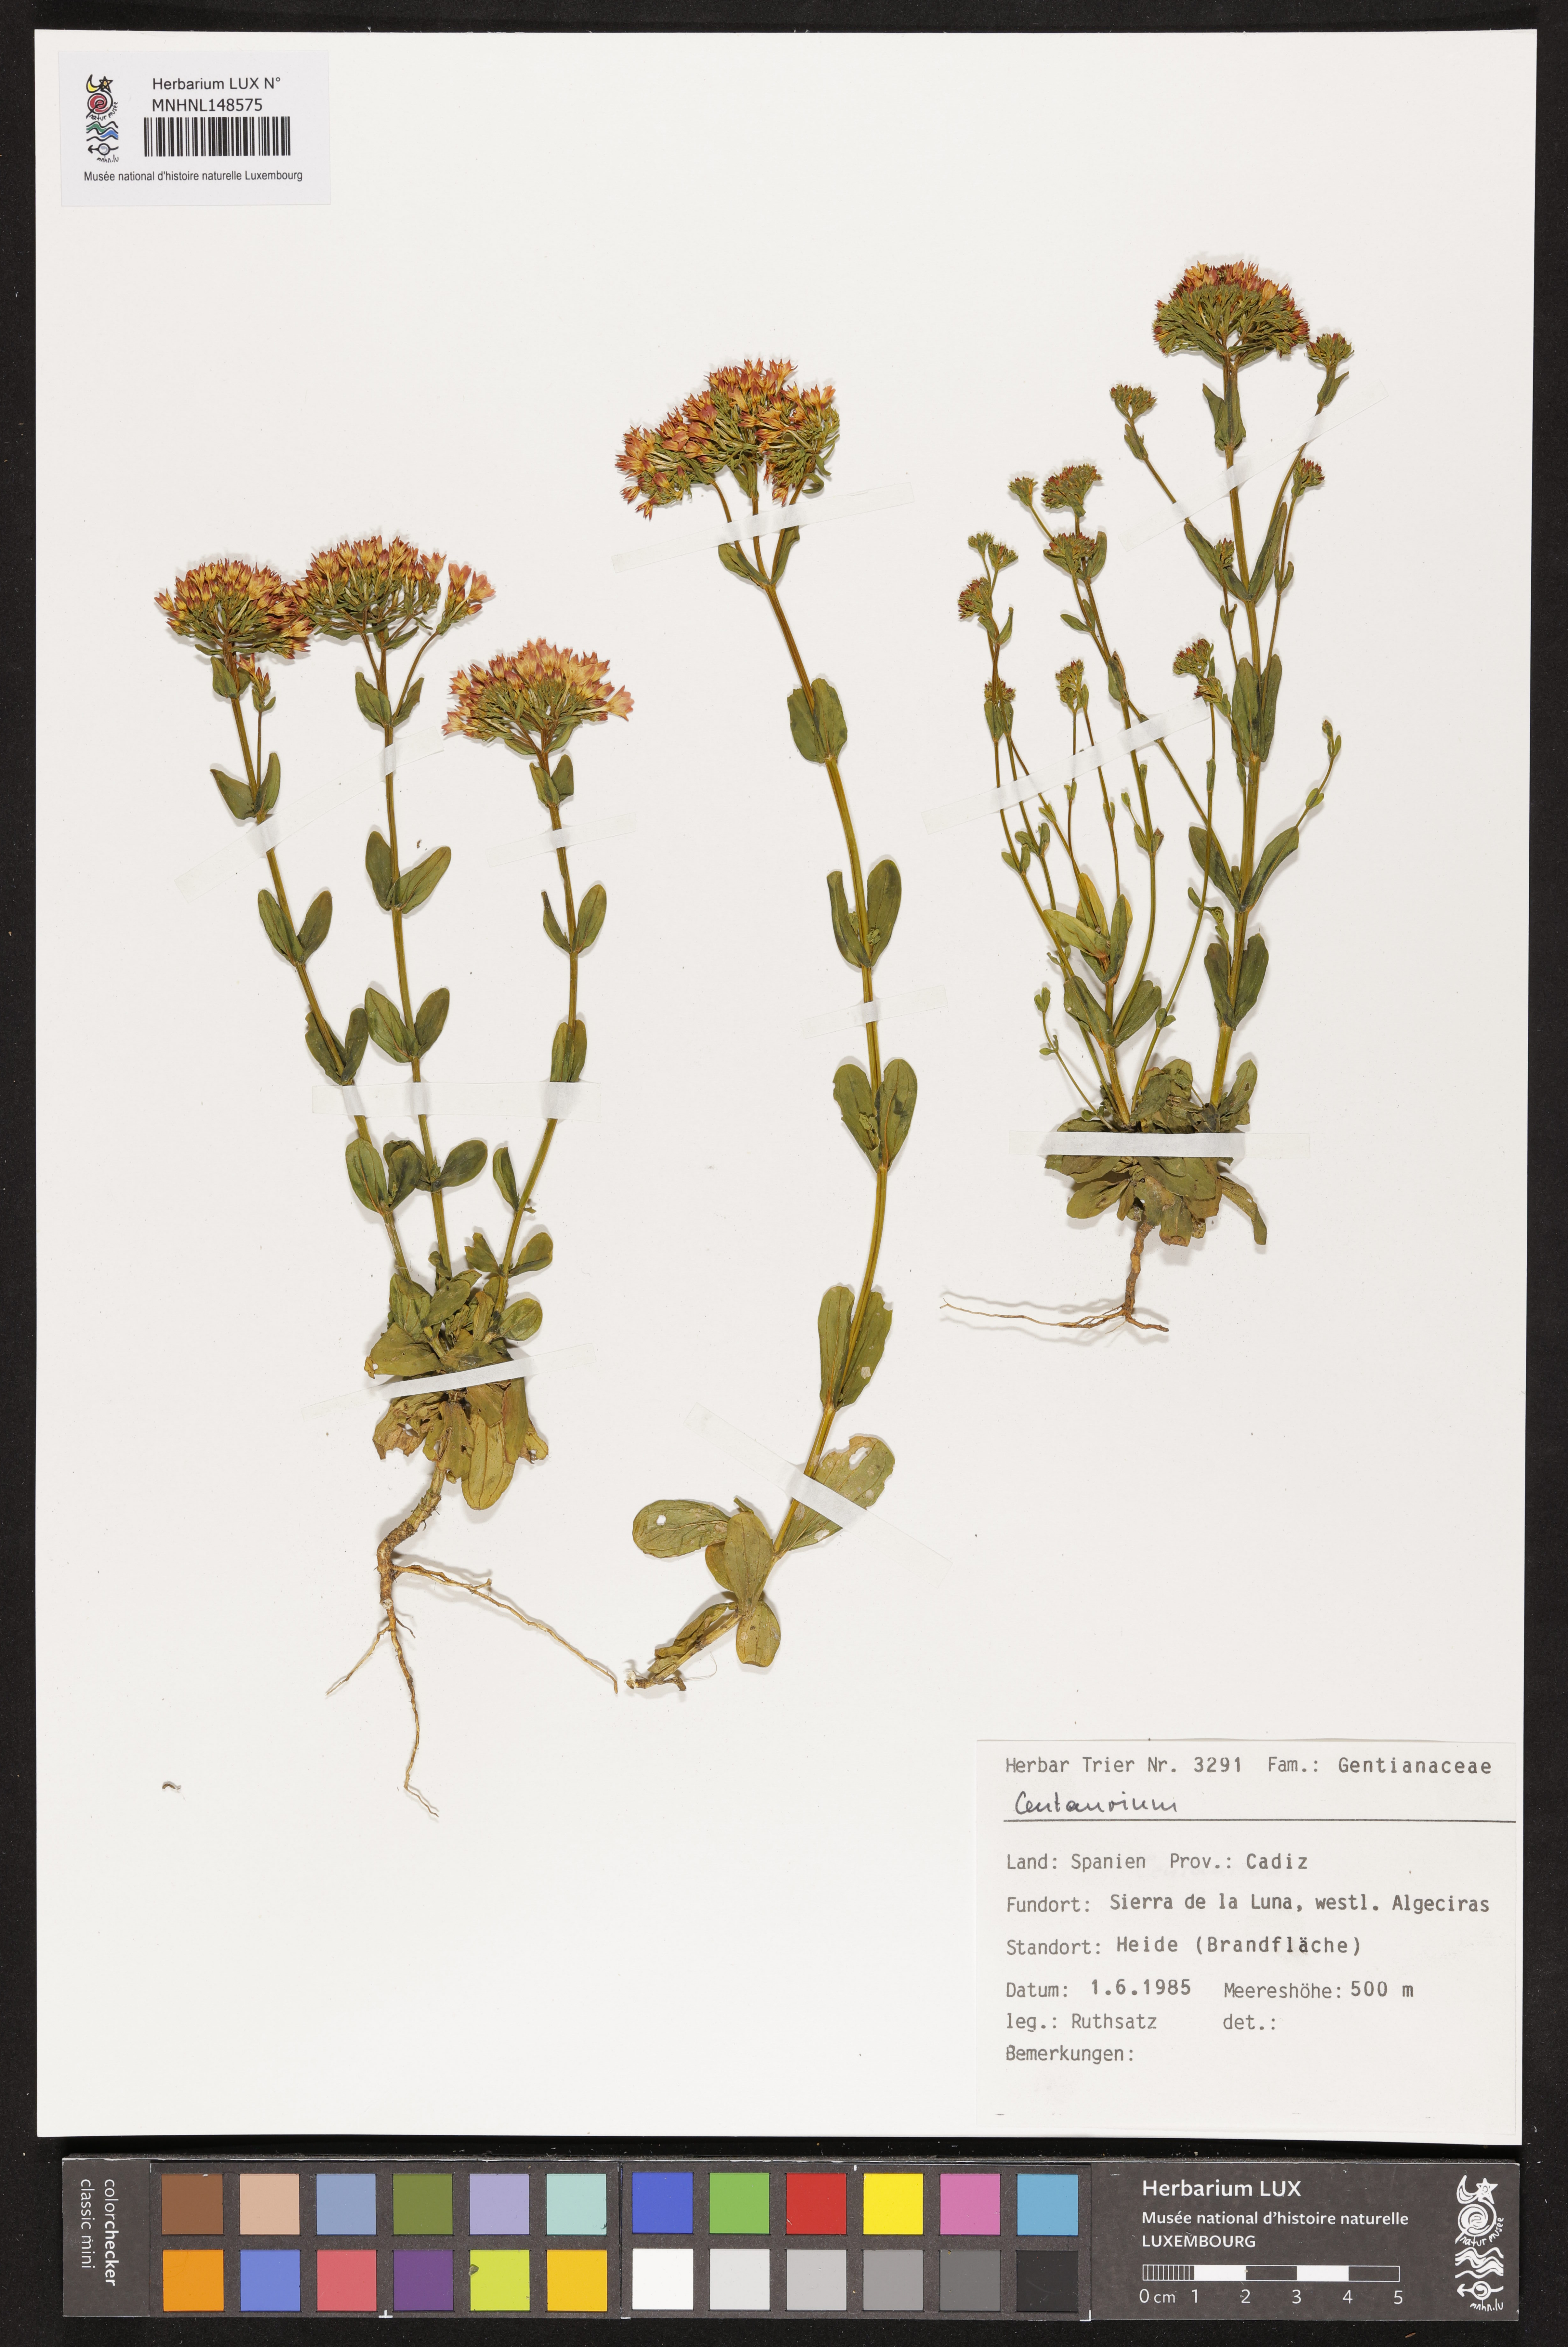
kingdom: Plantae
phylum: Tracheophyta
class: Magnoliopsida
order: Gentianales
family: Gentianaceae
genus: Centaurium
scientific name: Centaurium
